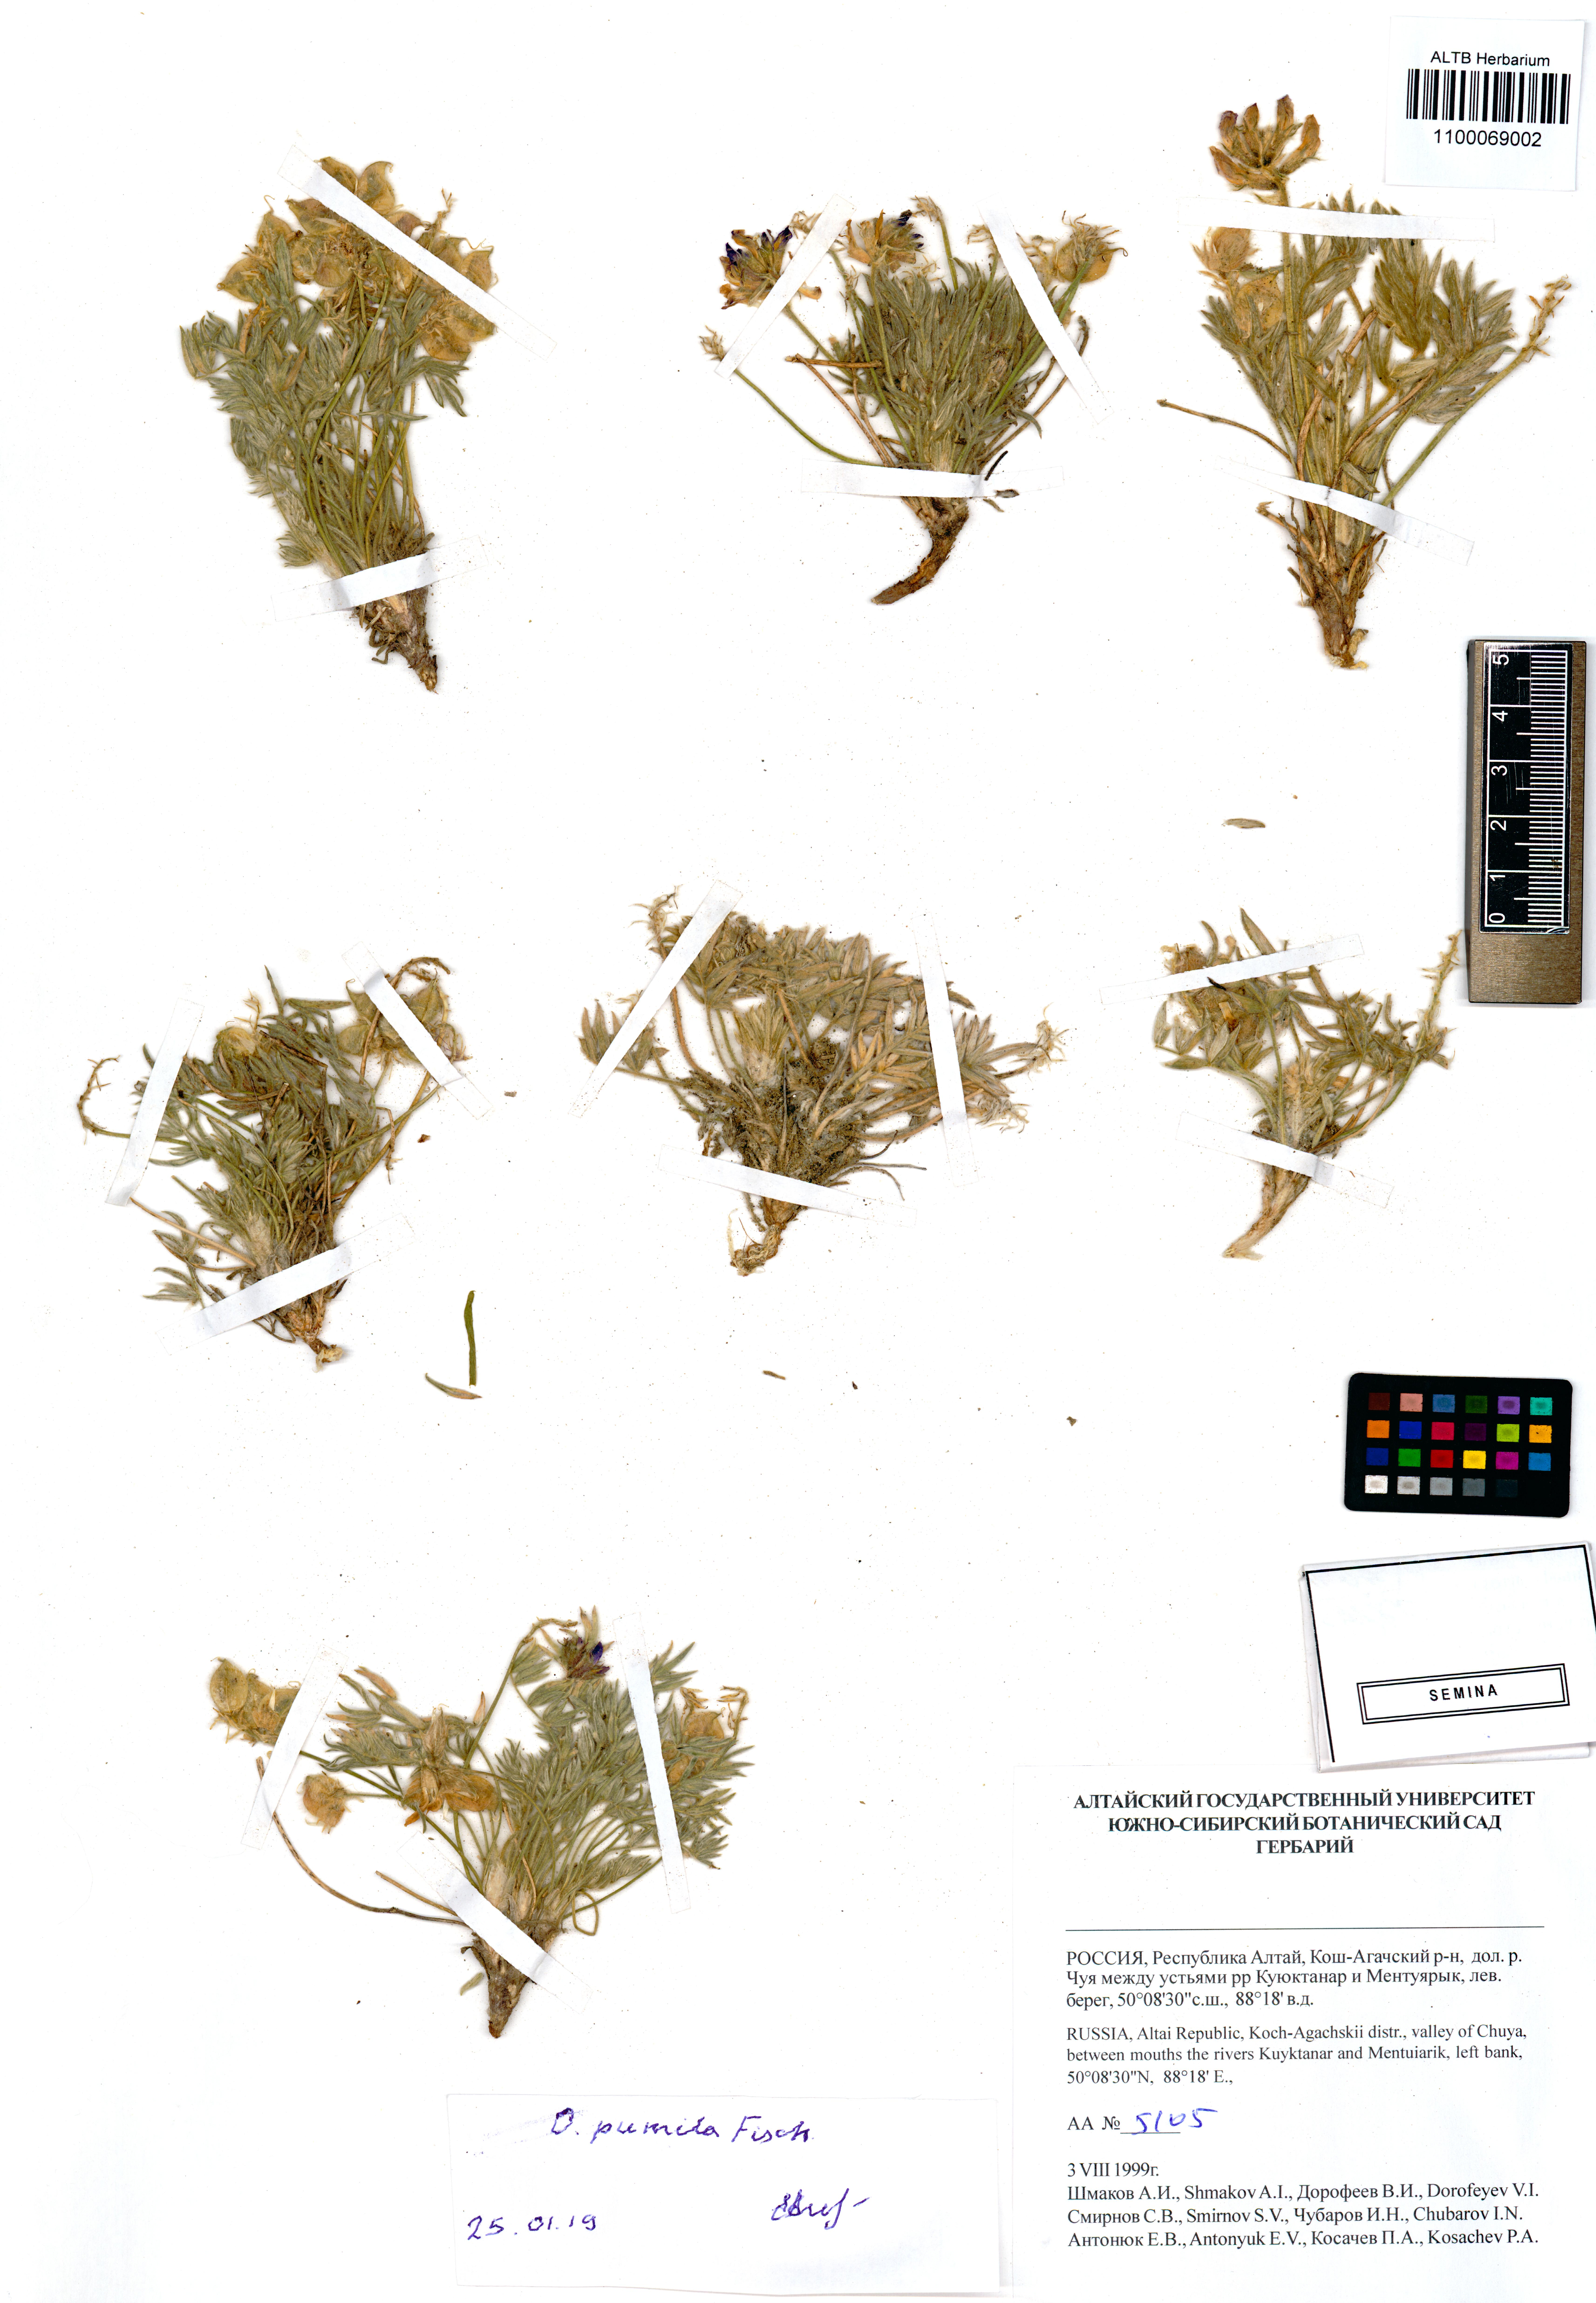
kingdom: Plantae
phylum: Tracheophyta
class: Magnoliopsida
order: Fabales
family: Fabaceae
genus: Oxytropis
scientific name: Oxytropis pumila
